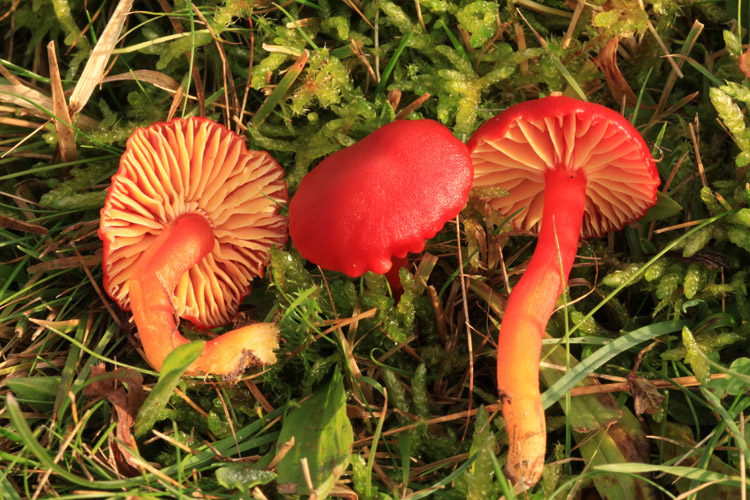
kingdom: Fungi
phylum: Basidiomycota
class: Agaricomycetes
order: Agaricales
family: Hygrophoraceae
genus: Hygrocybe
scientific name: Hygrocybe coccinea
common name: cinnober-vokshat
